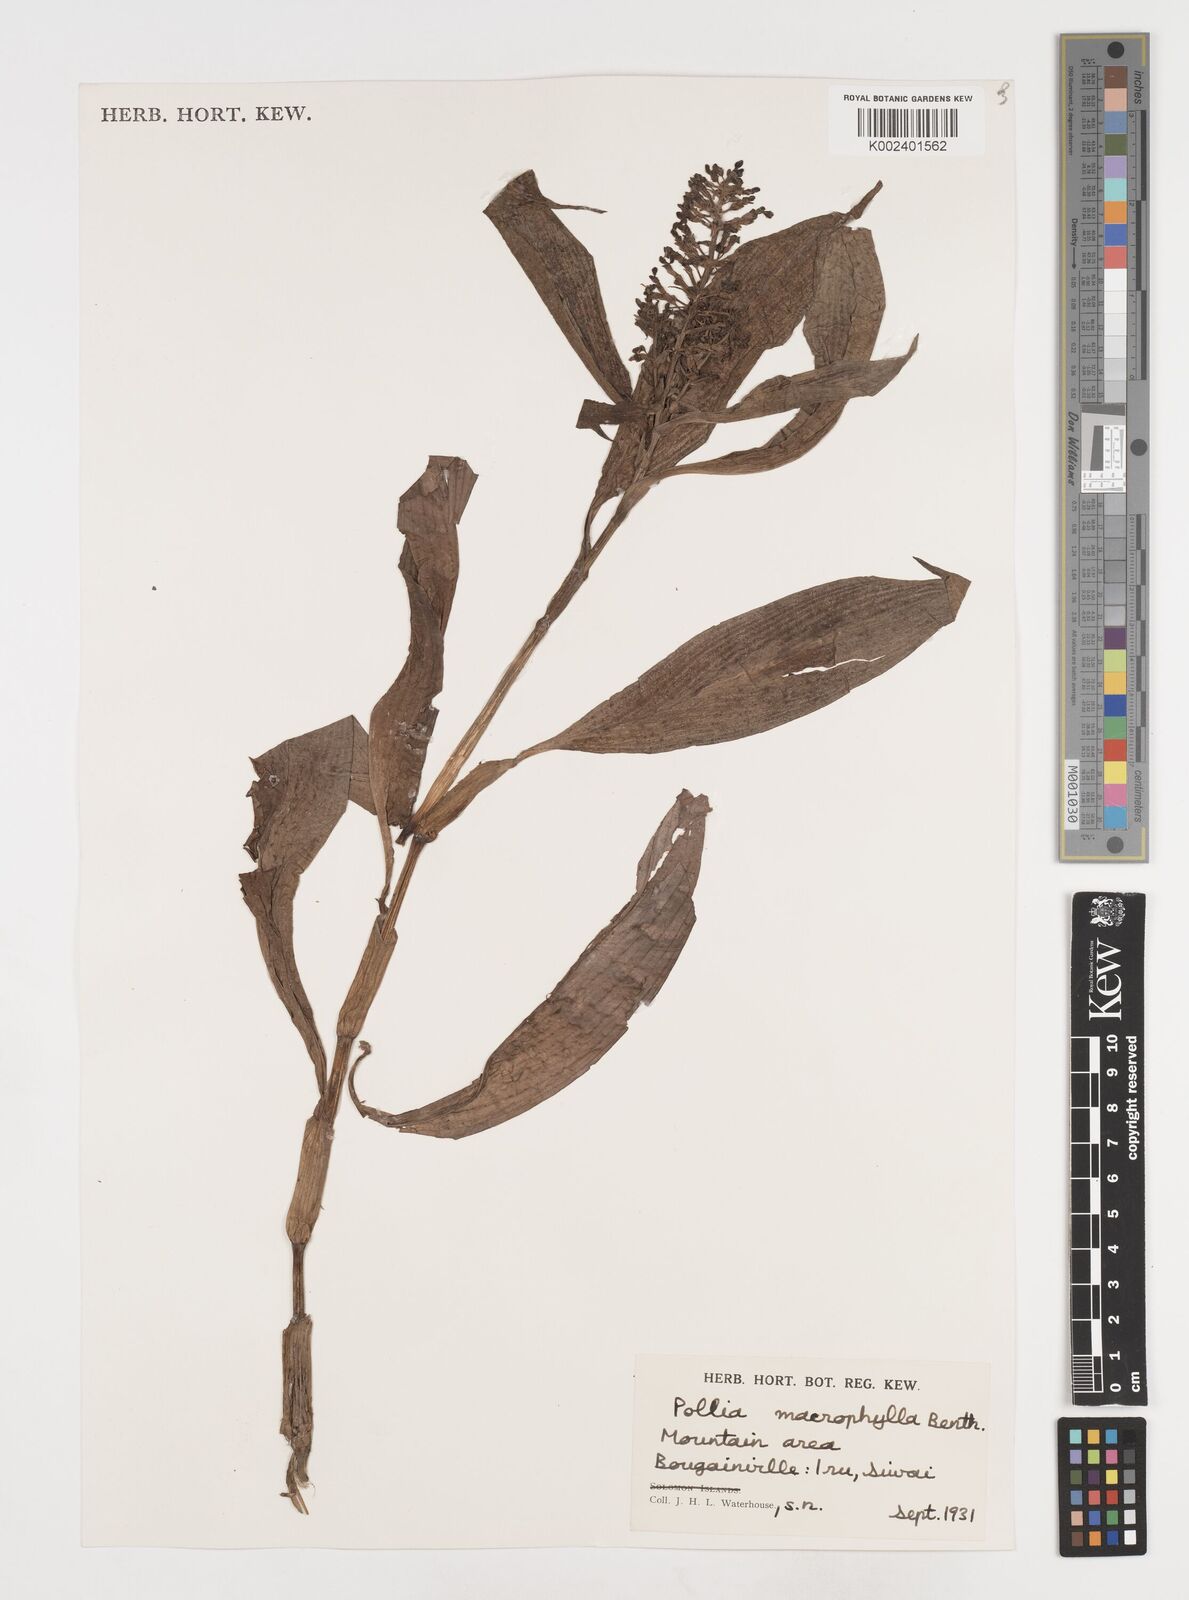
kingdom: Plantae
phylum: Tracheophyta
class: Liliopsida
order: Commelinales
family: Commelinaceae
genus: Pollia
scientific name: Pollia macrophylla
